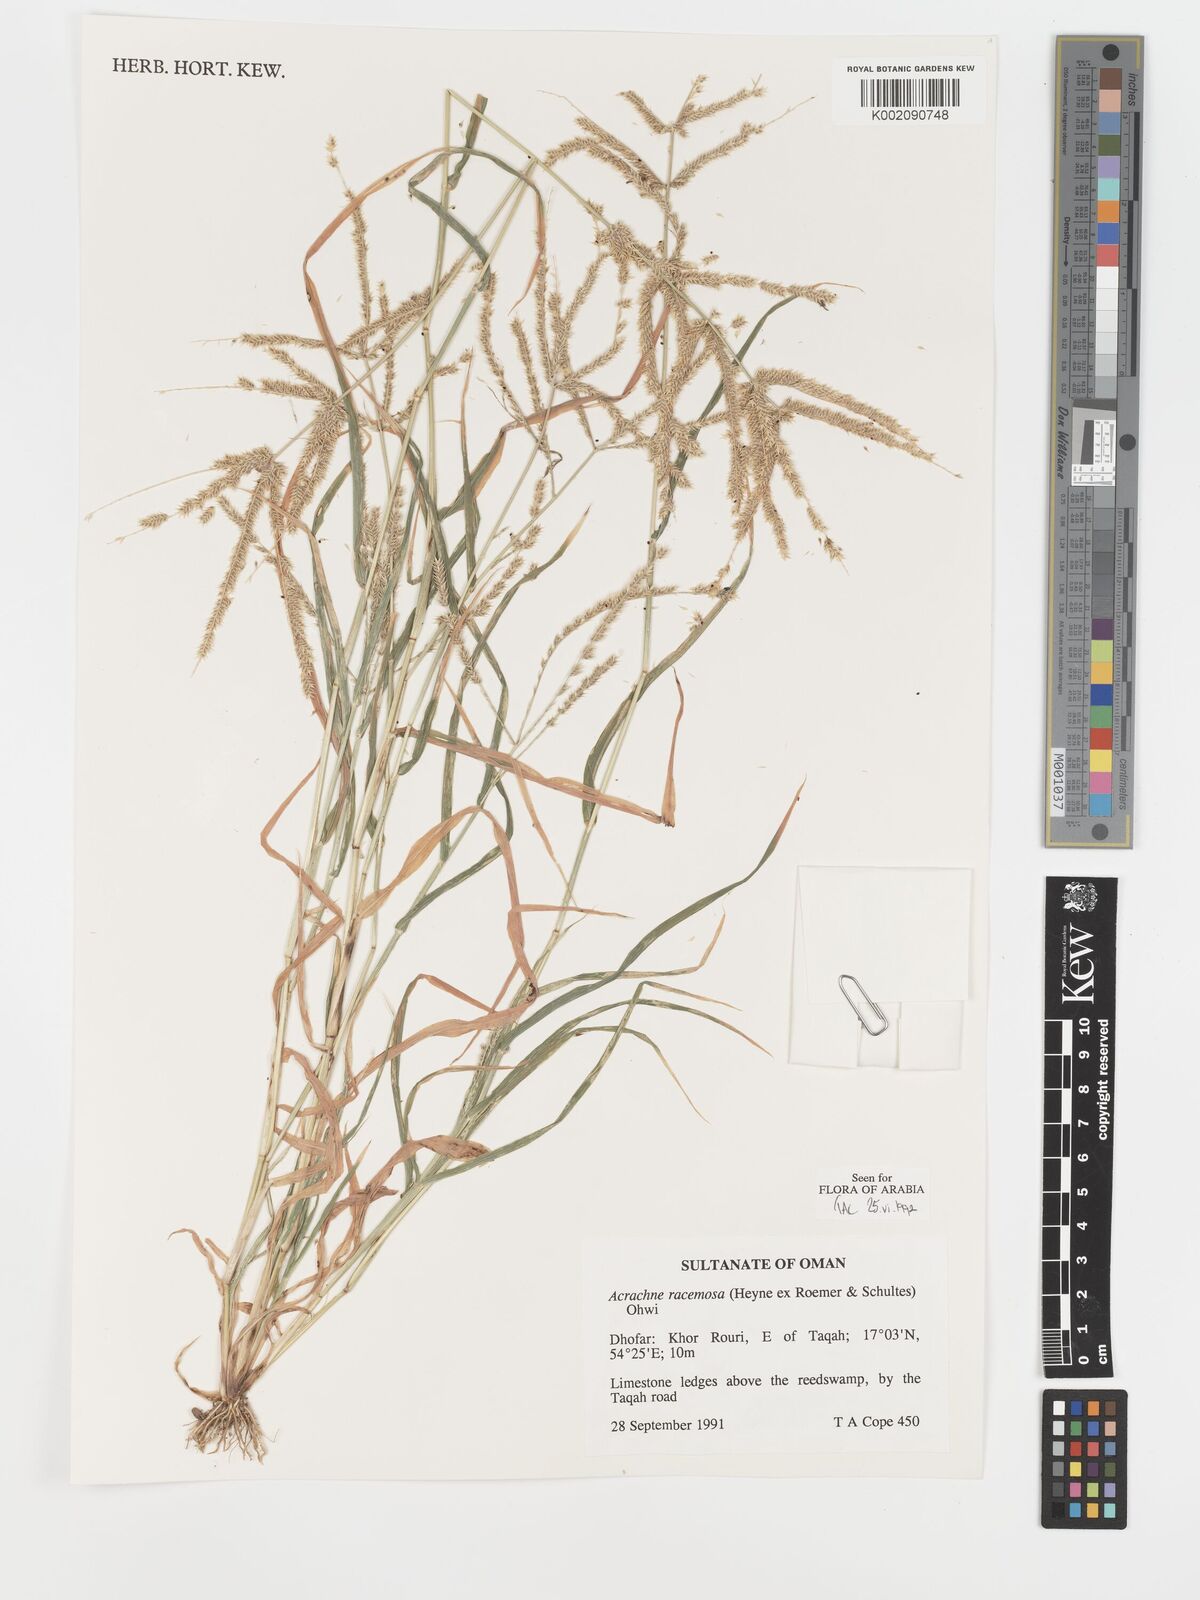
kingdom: Plantae
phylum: Tracheophyta
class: Liliopsida
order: Poales
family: Poaceae
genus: Acrachne
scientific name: Acrachne racemosa
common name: Goosegrass
